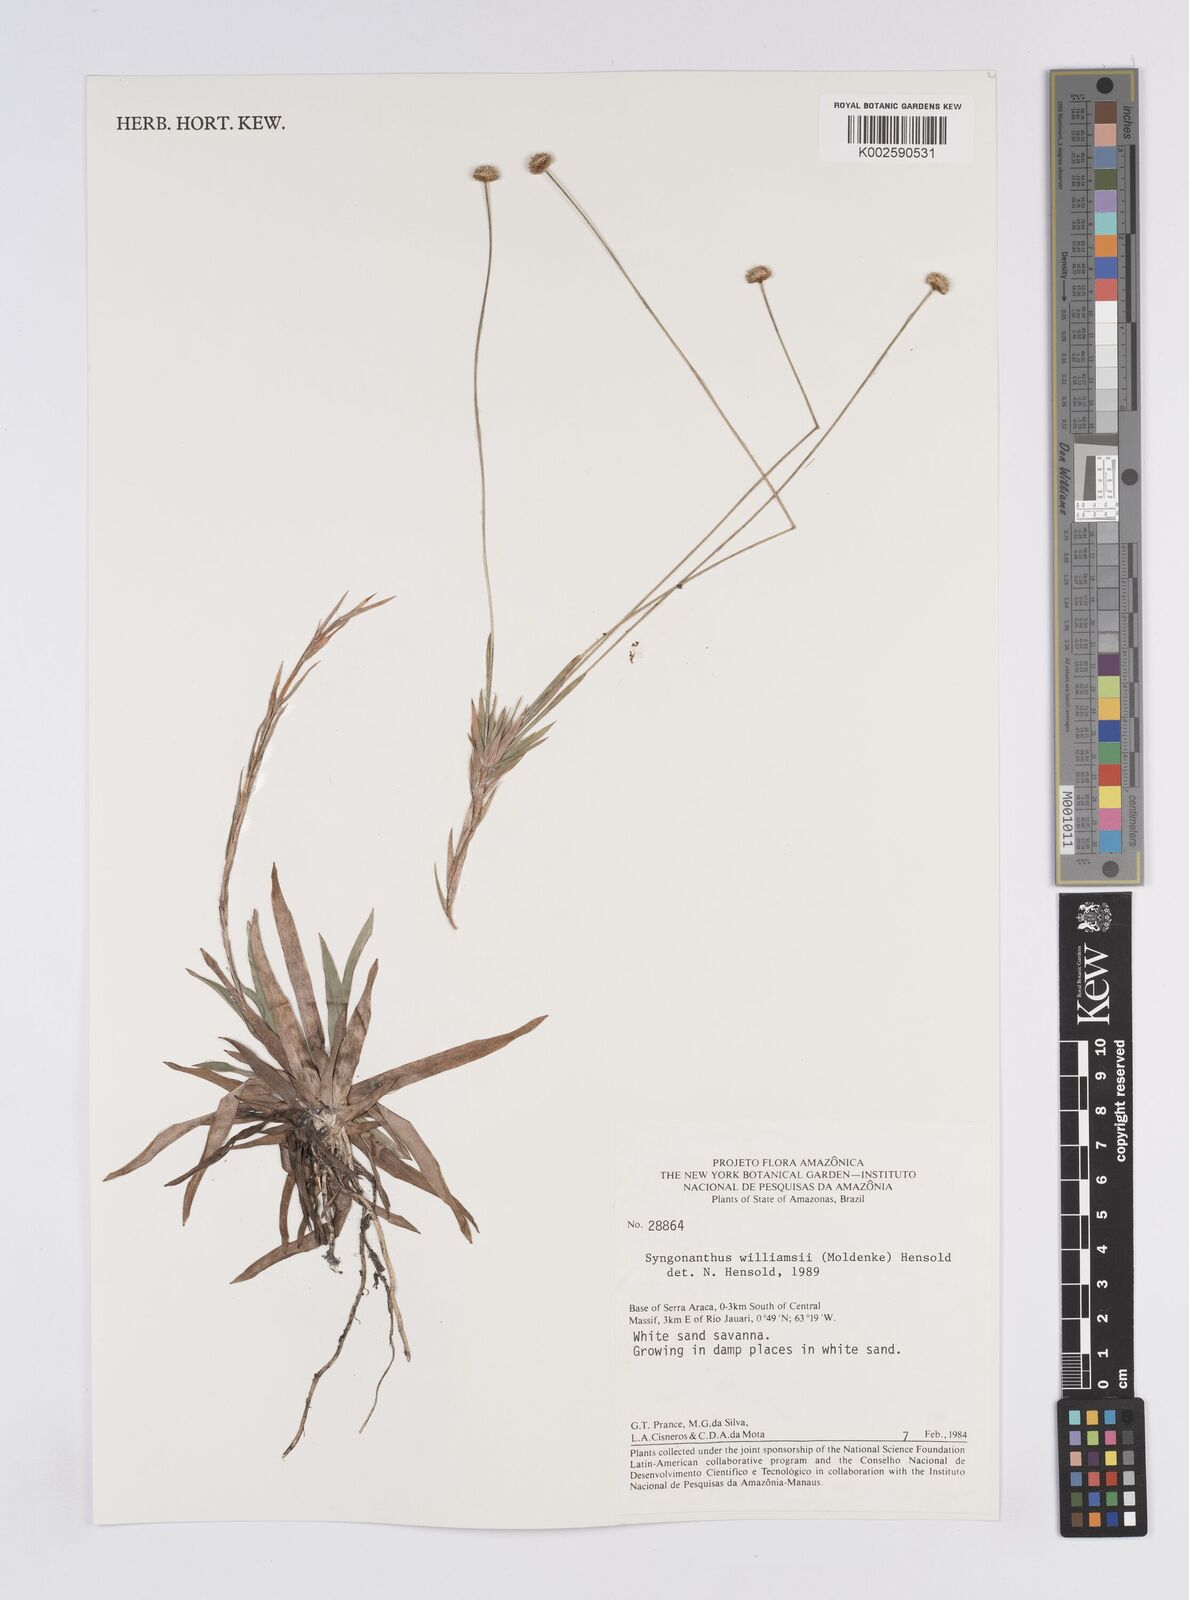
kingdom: Plantae
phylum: Tracheophyta
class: Liliopsida
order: Poales
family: Eriocaulaceae
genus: Syngonanthus
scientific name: Syngonanthus williamsii
